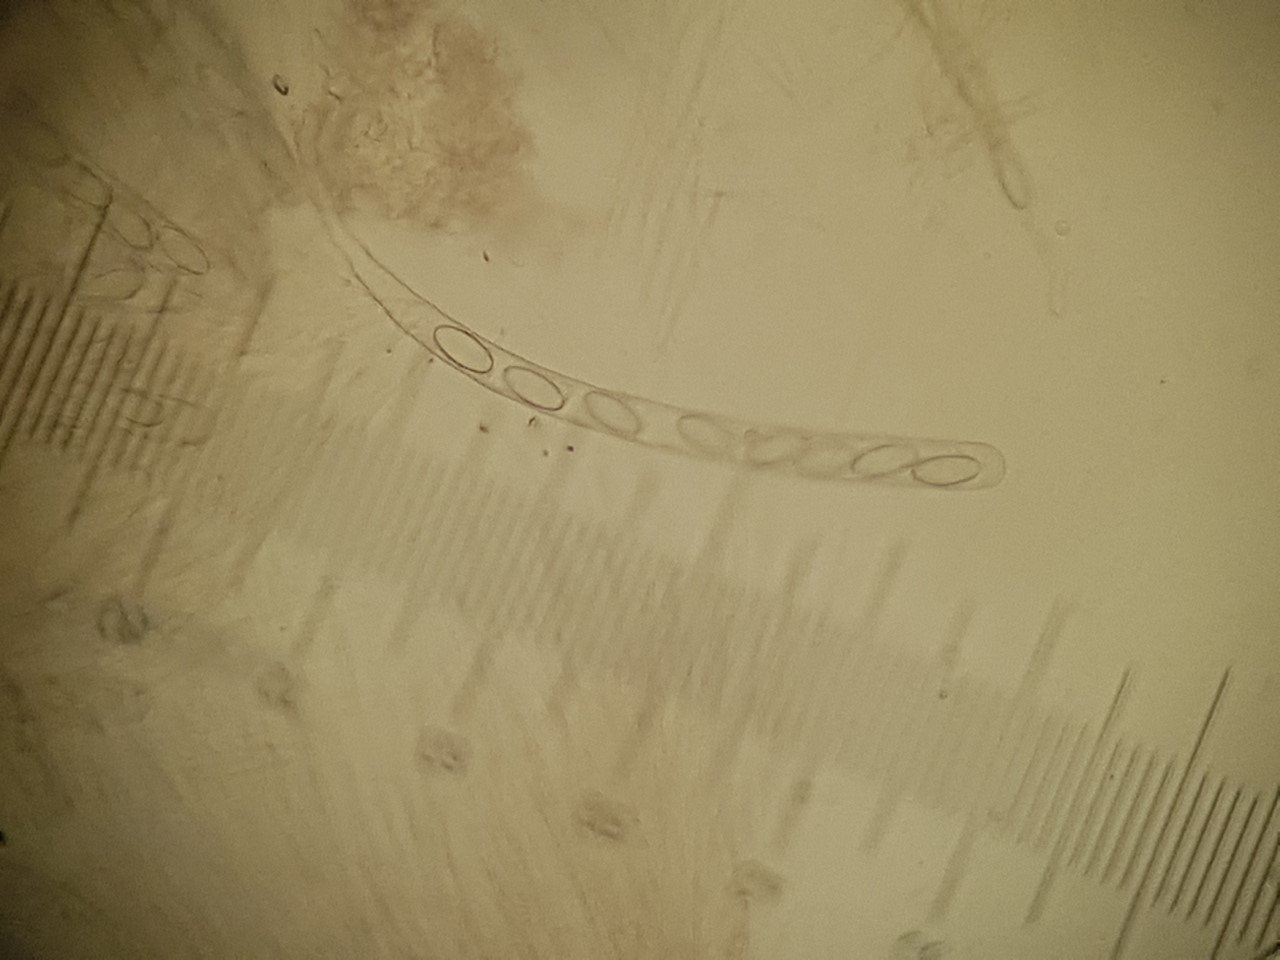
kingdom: Fungi
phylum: Ascomycota
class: Pezizomycetes
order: Pezizales
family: Ascodesmidaceae
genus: Lasiobolus
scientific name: Lasiobolus papillatus
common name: enradet øjebæger
